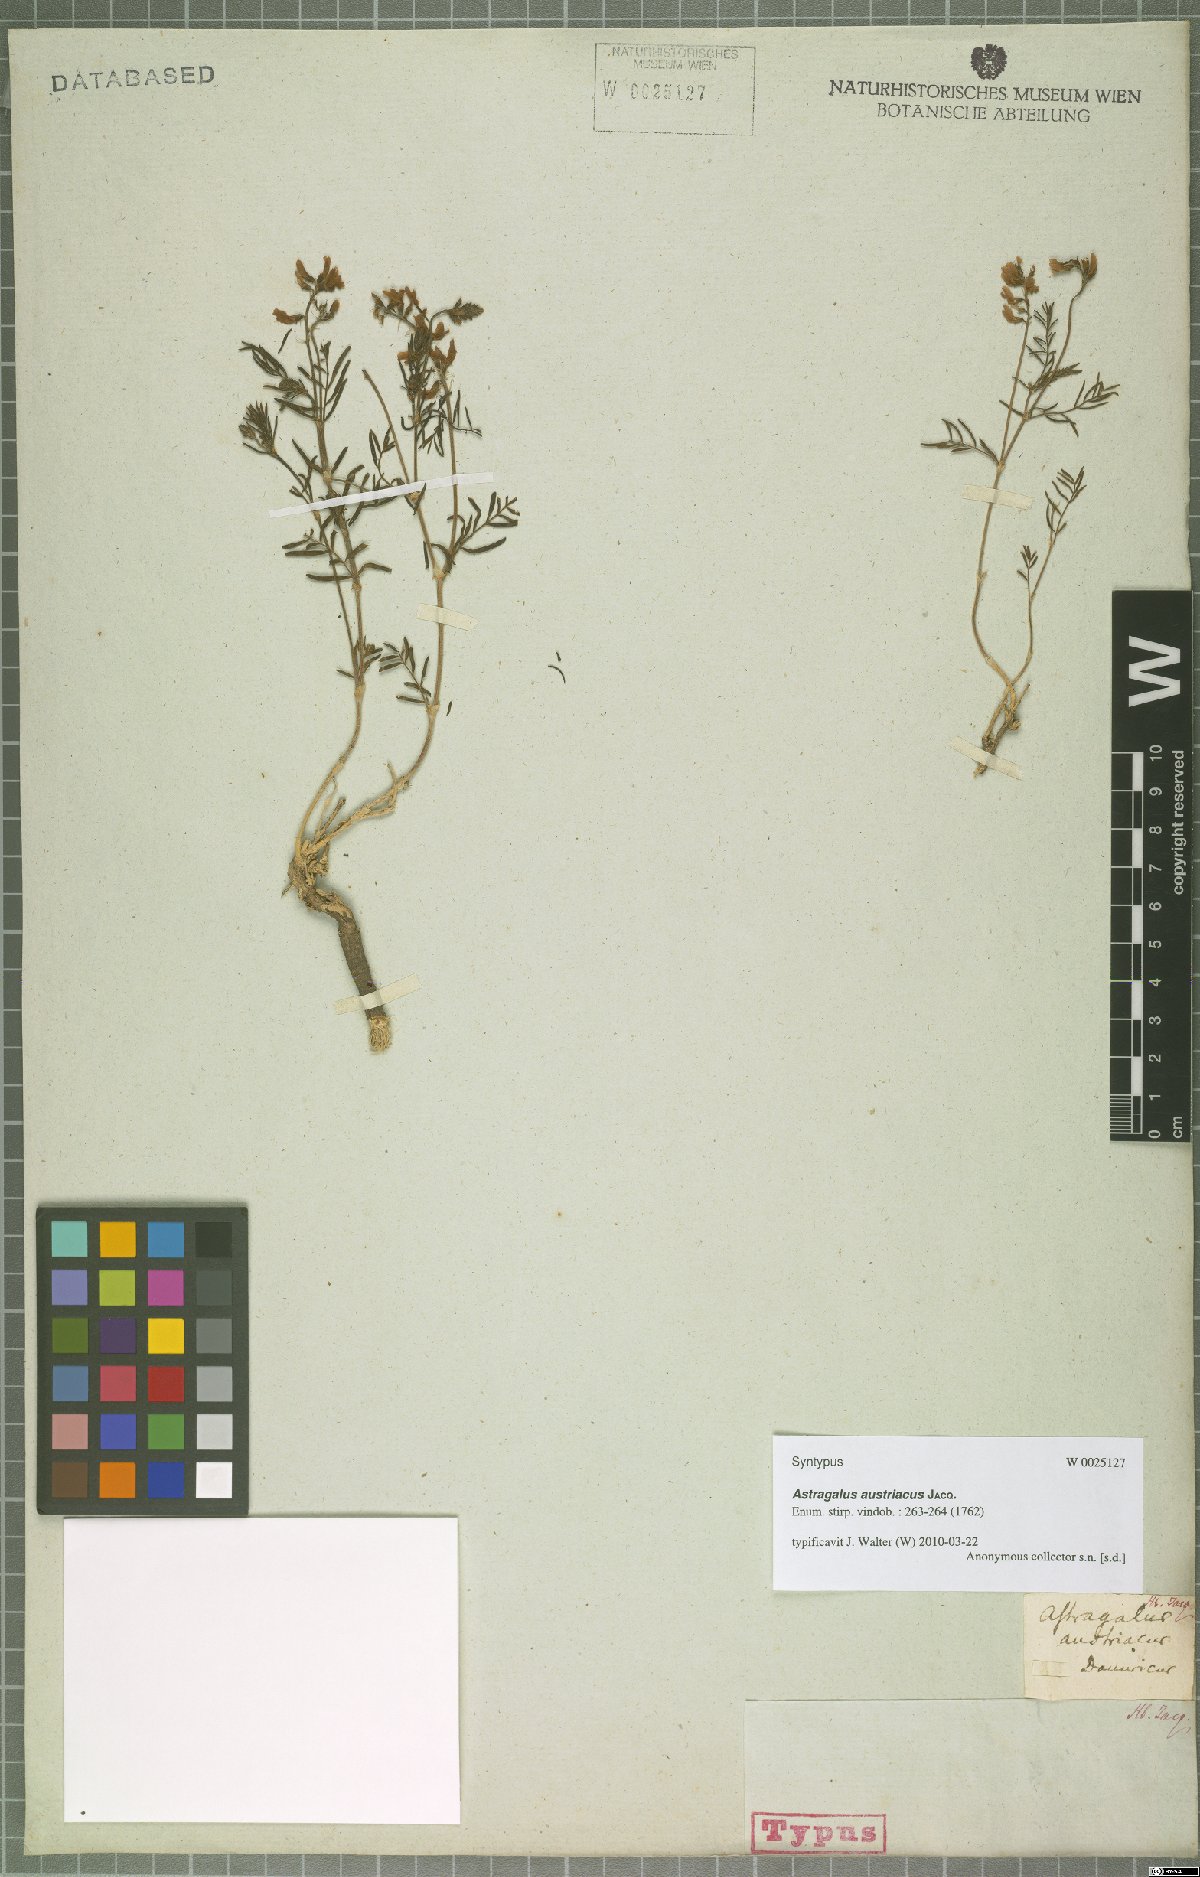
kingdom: Plantae
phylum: Tracheophyta
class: Magnoliopsida
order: Fabales
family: Fabaceae
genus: Astragalus
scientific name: Astragalus austriacus
